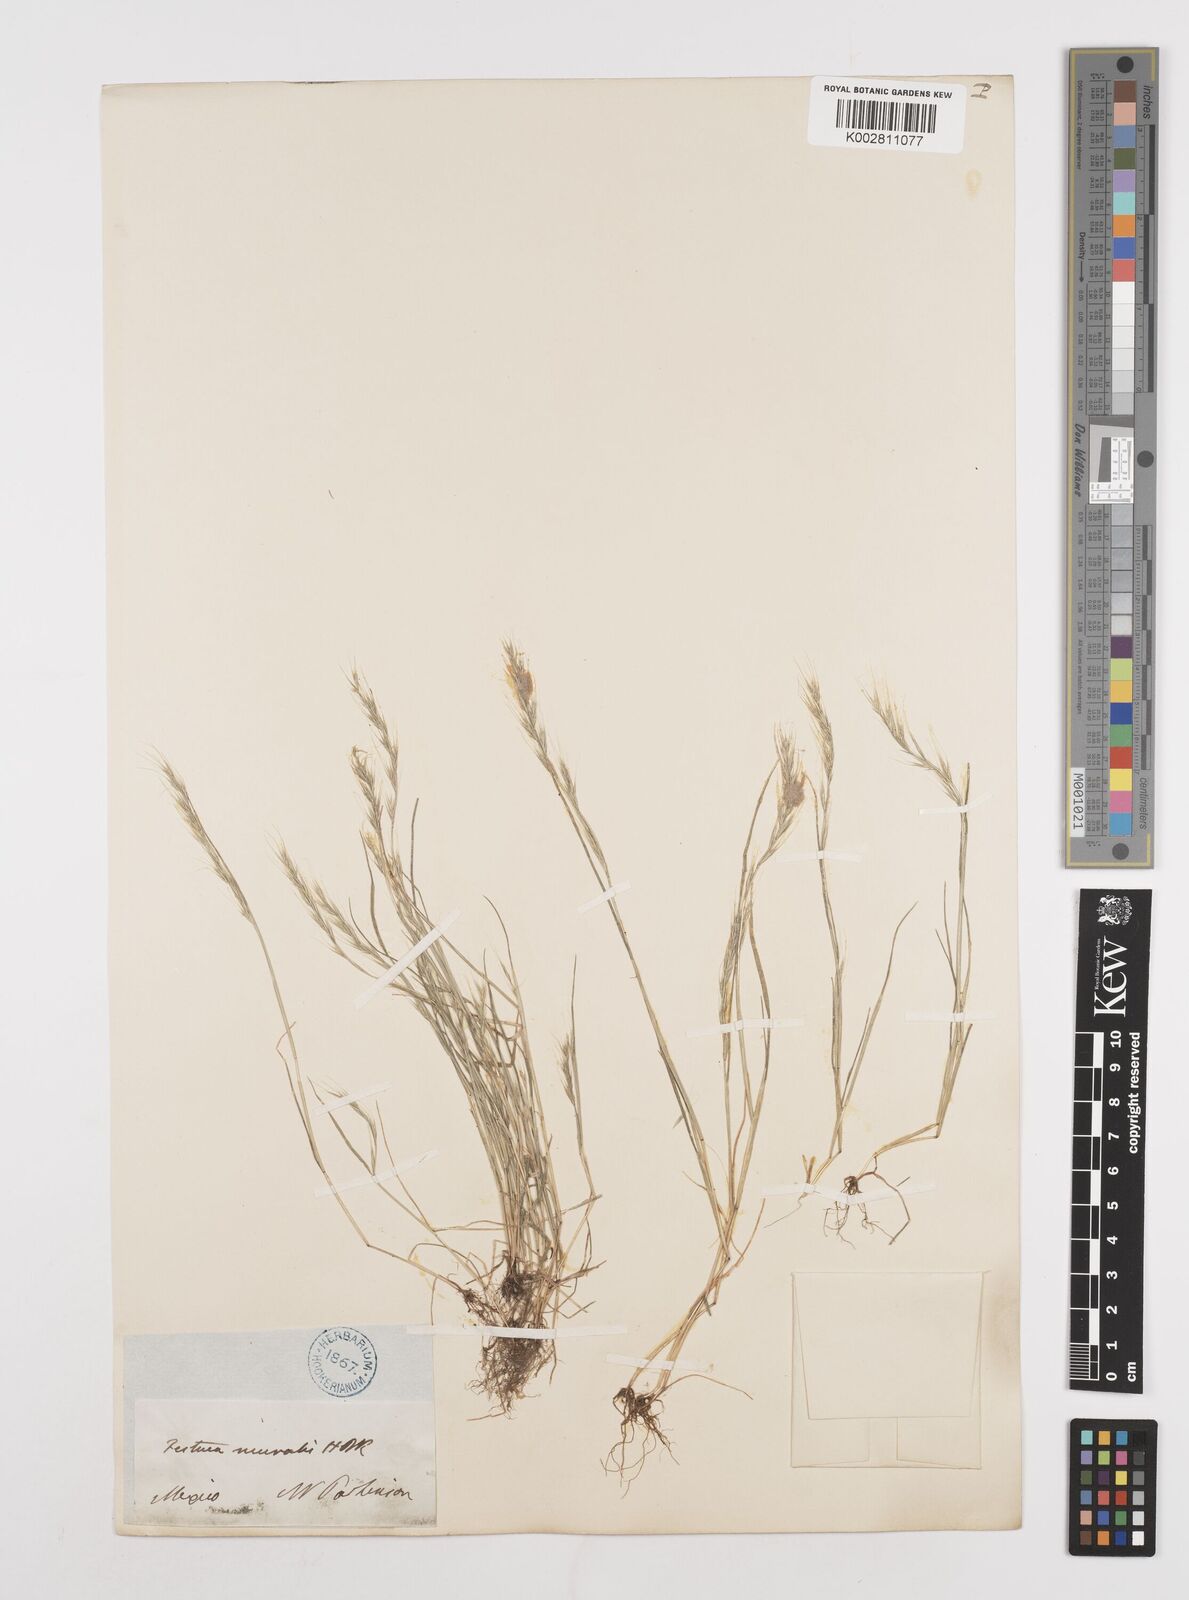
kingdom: Plantae
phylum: Tracheophyta
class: Liliopsida
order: Poales
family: Poaceae
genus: Festuca
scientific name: Festuca myuros
